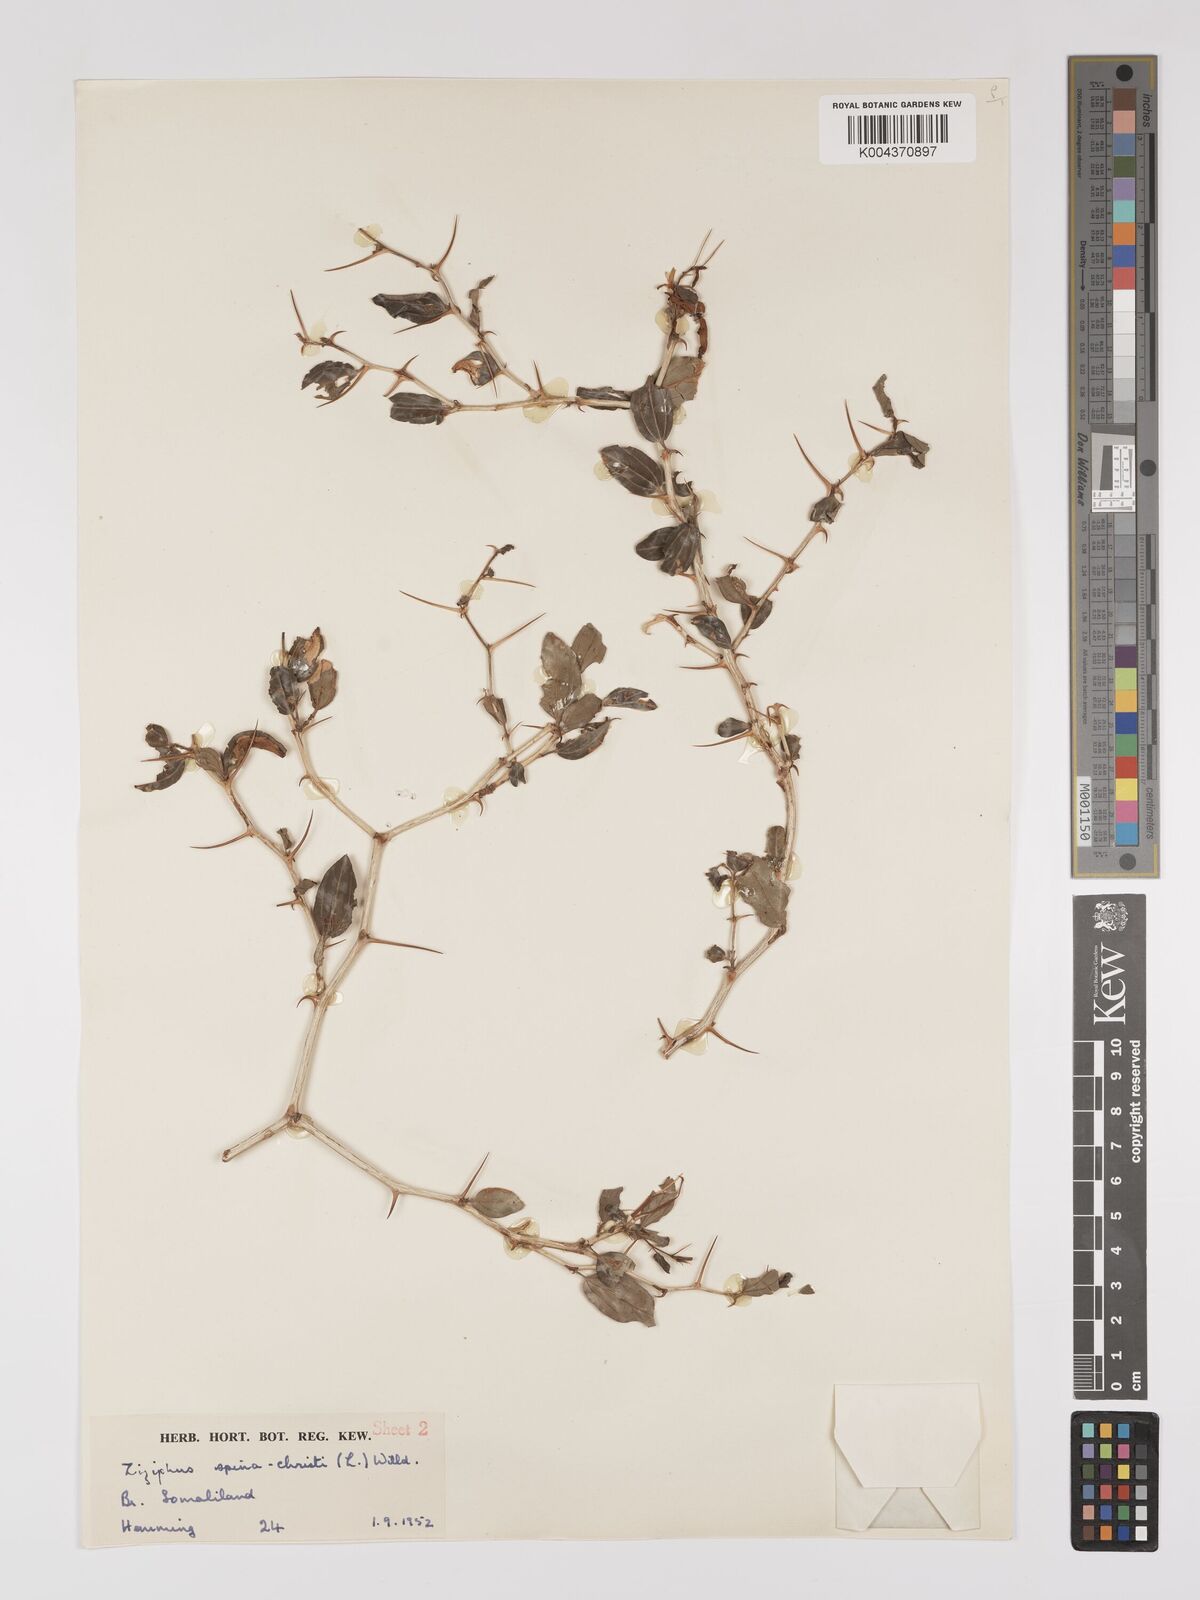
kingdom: Plantae
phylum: Tracheophyta
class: Magnoliopsida
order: Rosales
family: Rhamnaceae
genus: Ziziphus
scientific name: Ziziphus spina-christi
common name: Syrian christ-thorn
